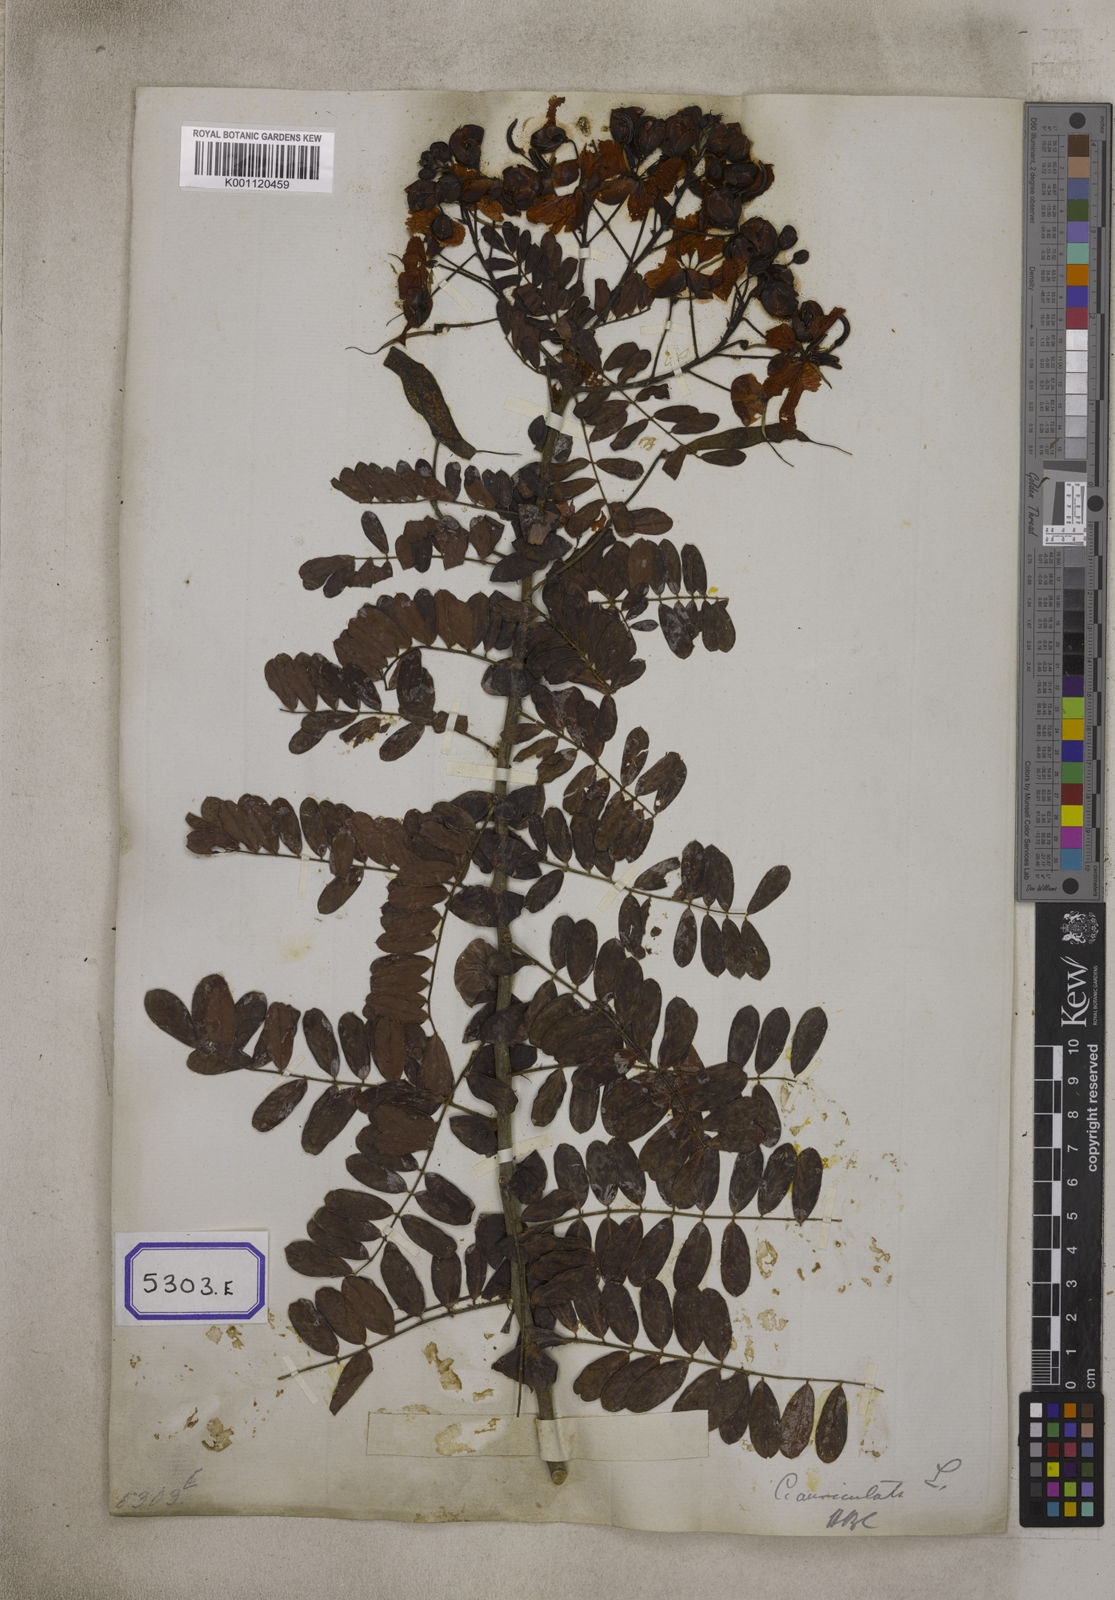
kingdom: Plantae
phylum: Tracheophyta
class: Magnoliopsida
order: Fabales
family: Fabaceae
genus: Senna
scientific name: Senna auriculata
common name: Tanner's cassia
